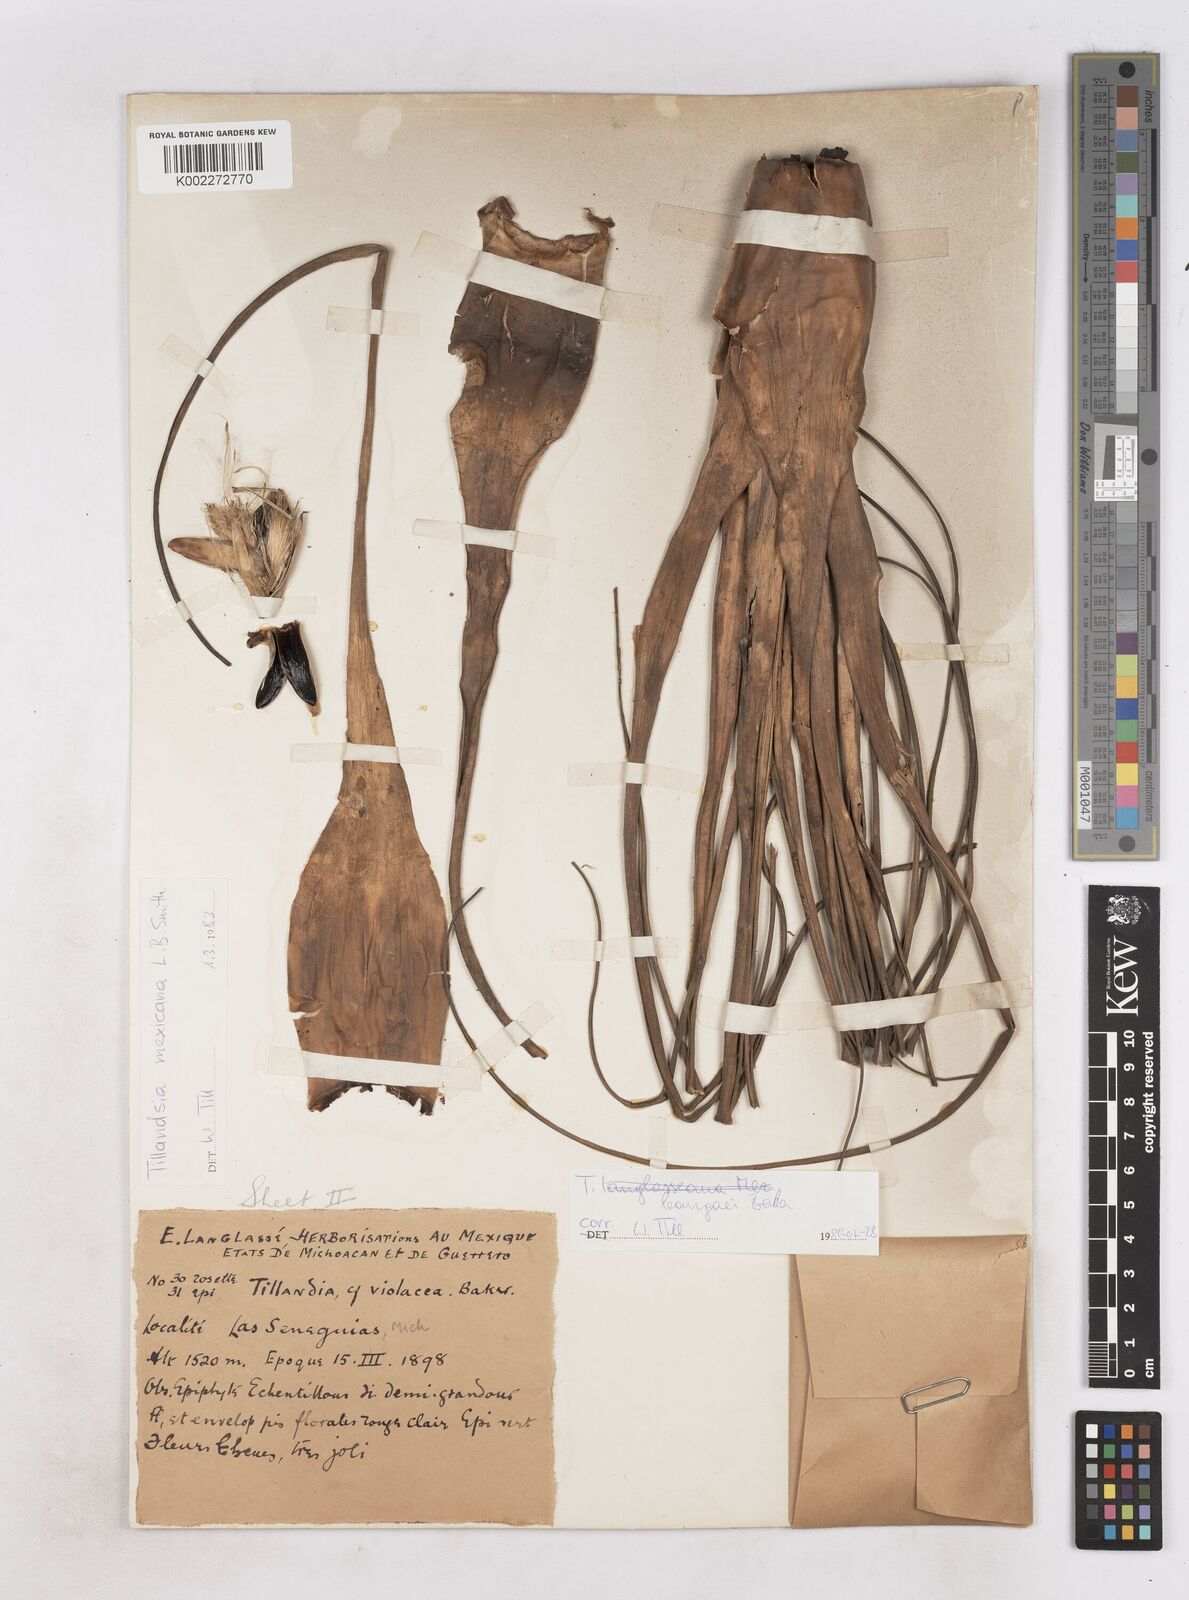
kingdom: Plantae
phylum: Tracheophyta
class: Liliopsida
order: Poales
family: Bromeliaceae
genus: Tillandsia
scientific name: Tillandsia bourgaei
